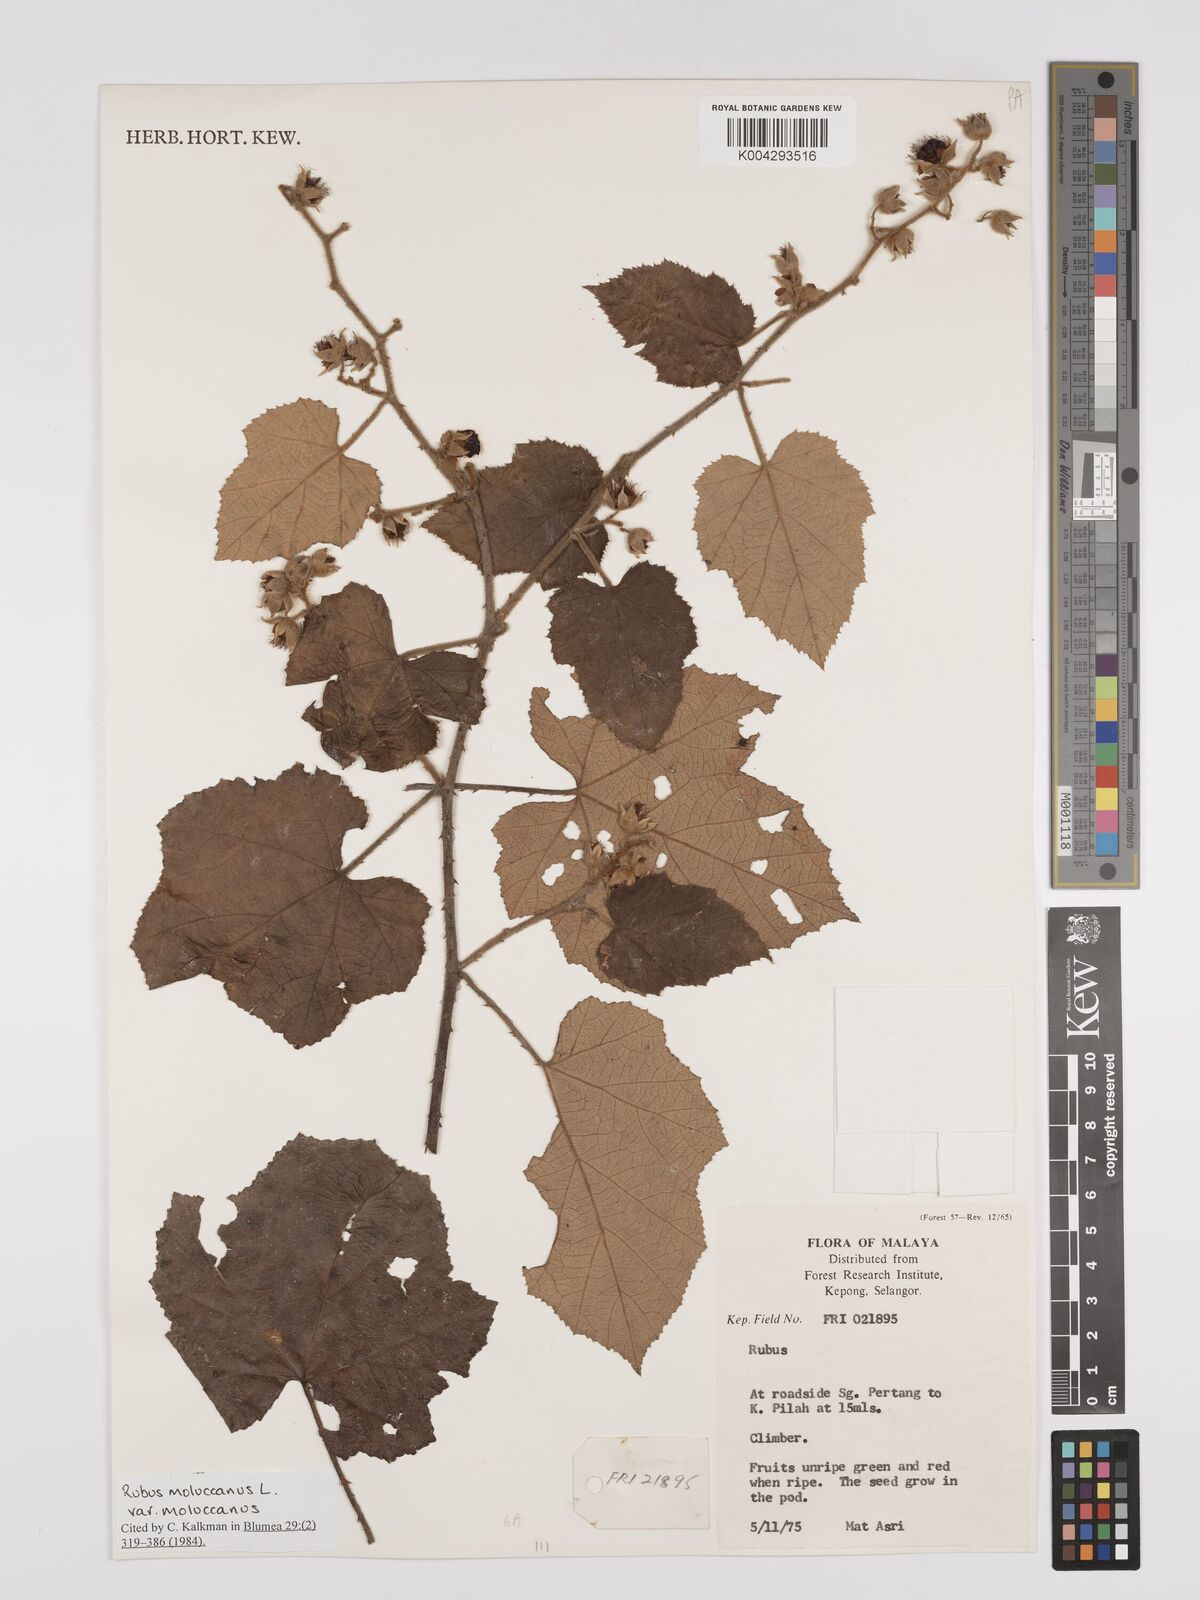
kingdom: Plantae
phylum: Tracheophyta
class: Magnoliopsida
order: Rosales
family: Rosaceae
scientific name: Rosaceae
